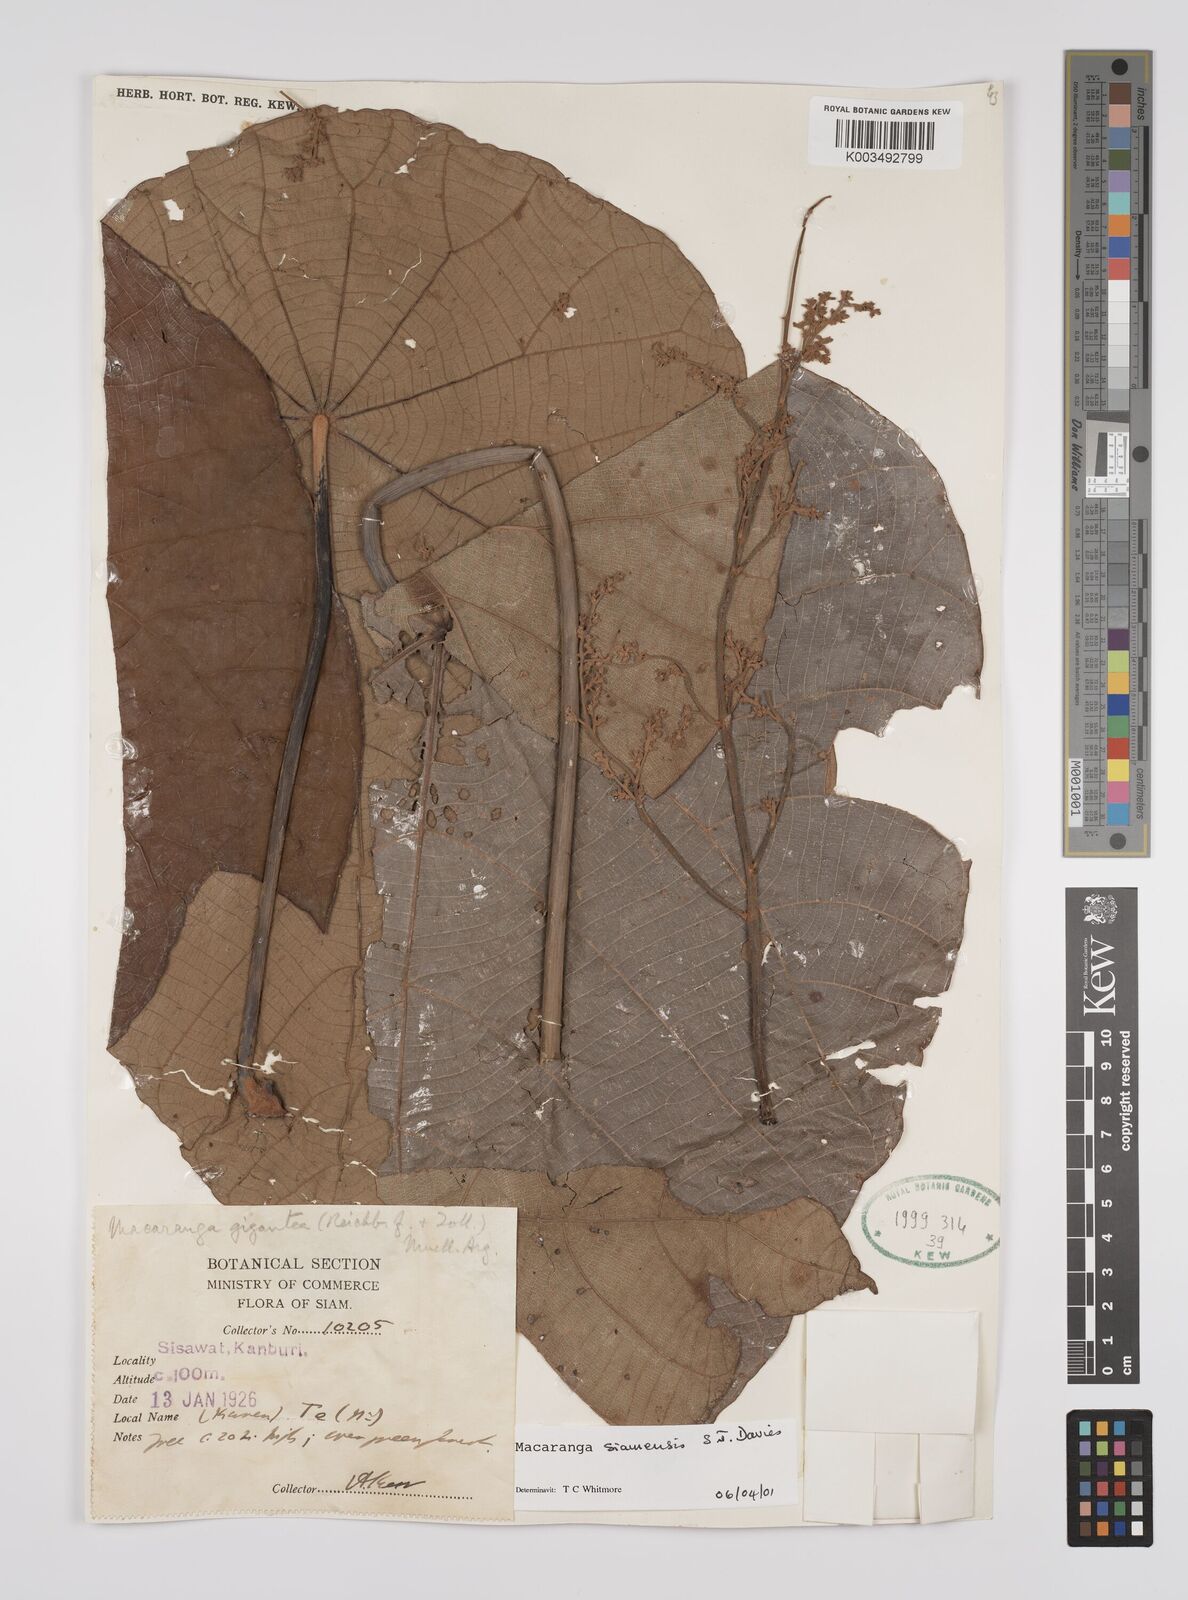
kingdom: Plantae
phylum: Tracheophyta
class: Magnoliopsida
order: Malpighiales
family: Euphorbiaceae
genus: Macaranga
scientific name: Macaranga siamensis
